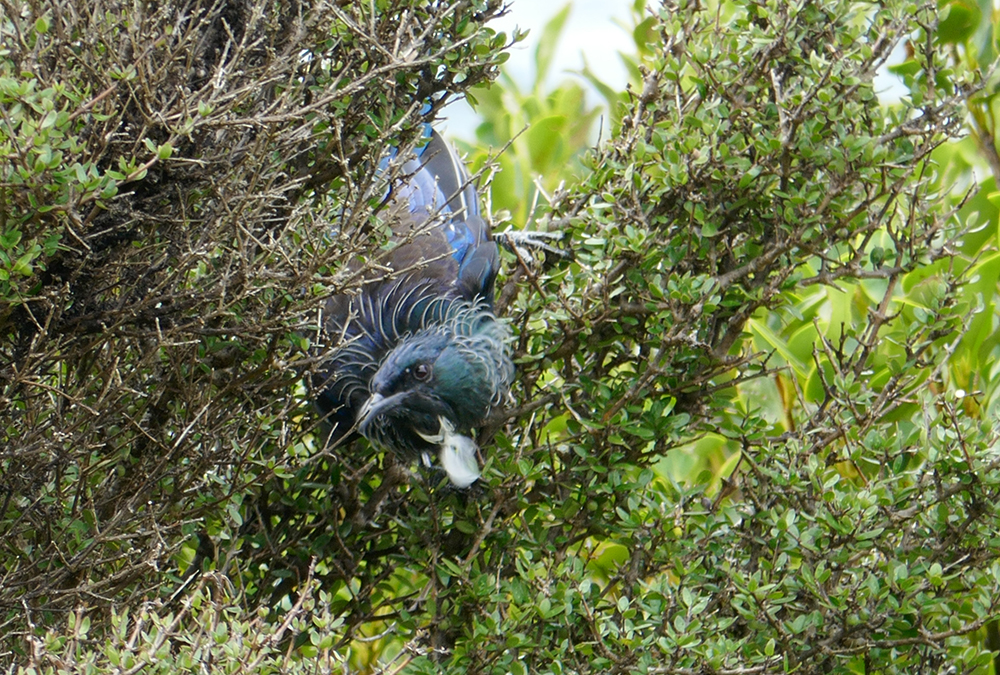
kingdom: Animalia
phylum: Chordata
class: Aves
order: Passeriformes
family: Meliphagidae
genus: Prosthemadera
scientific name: Prosthemadera novaeseelandiae
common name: Tui
